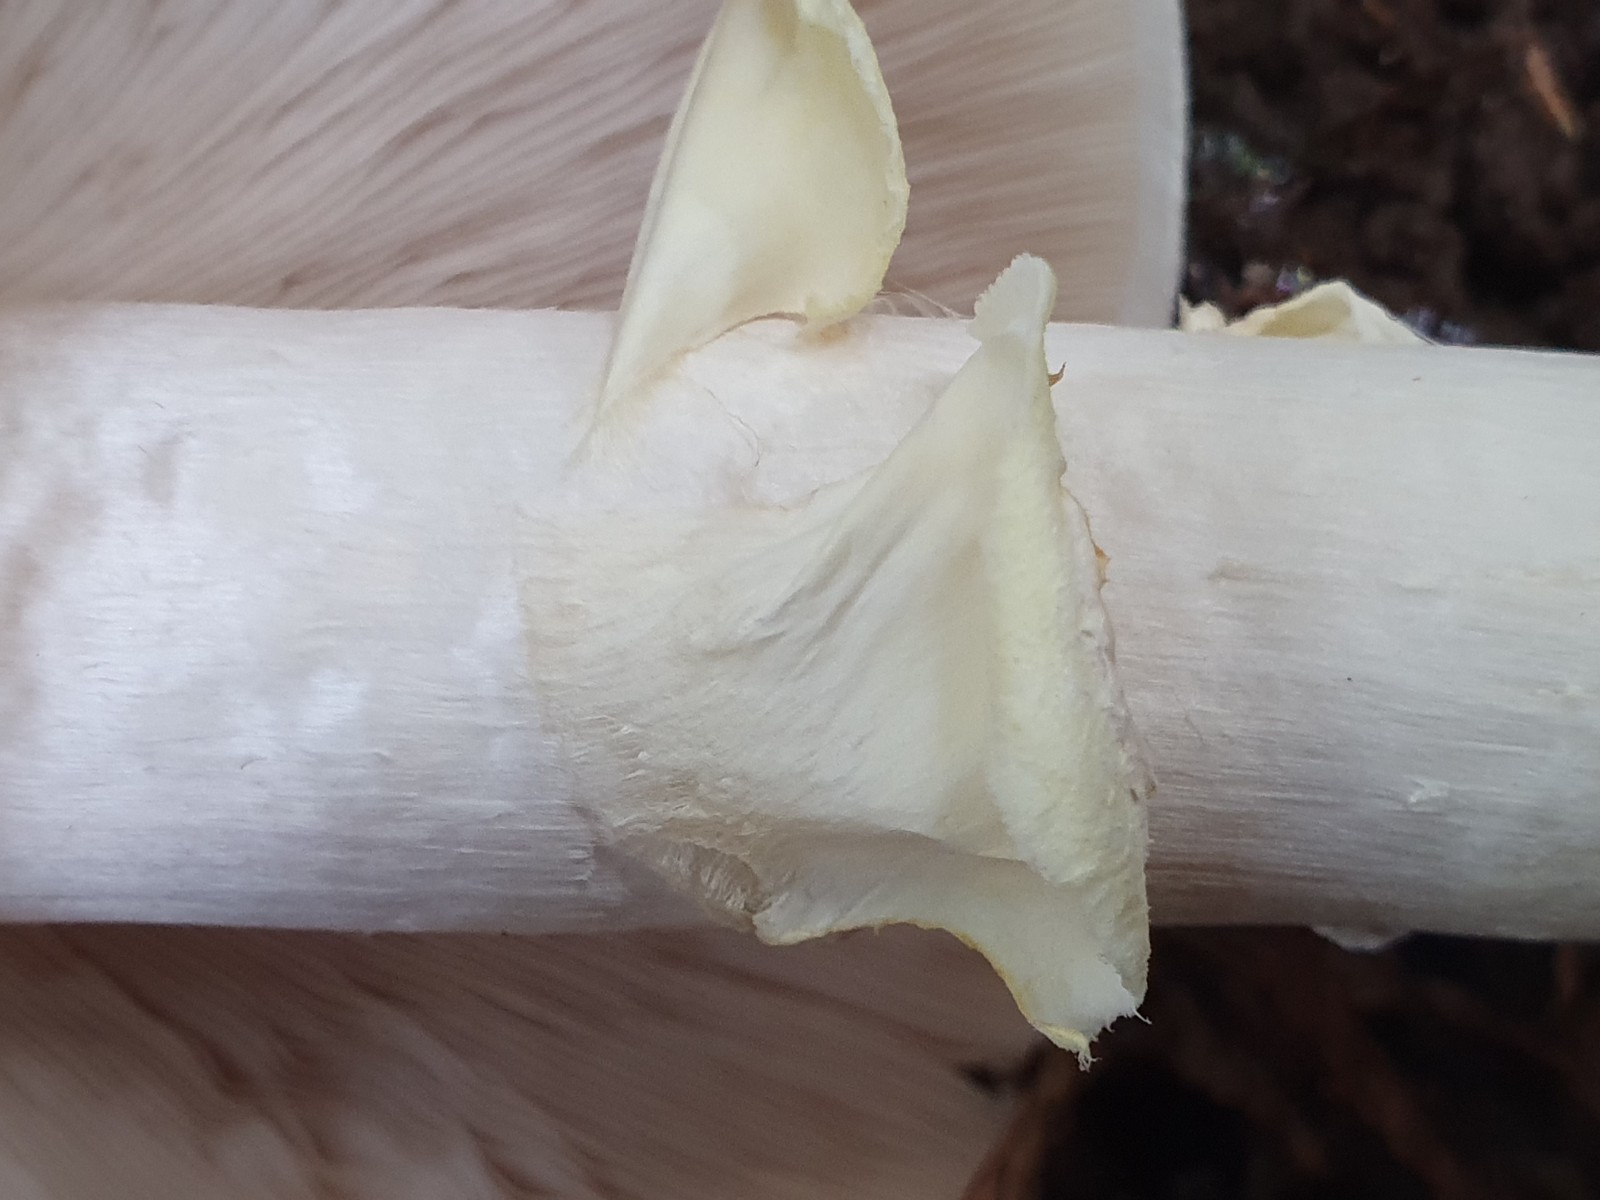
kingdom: Fungi
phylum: Basidiomycota
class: Agaricomycetes
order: Agaricales
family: Agaricaceae
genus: Agaricus
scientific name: Agaricus sylvicola
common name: gulhvid champignon
